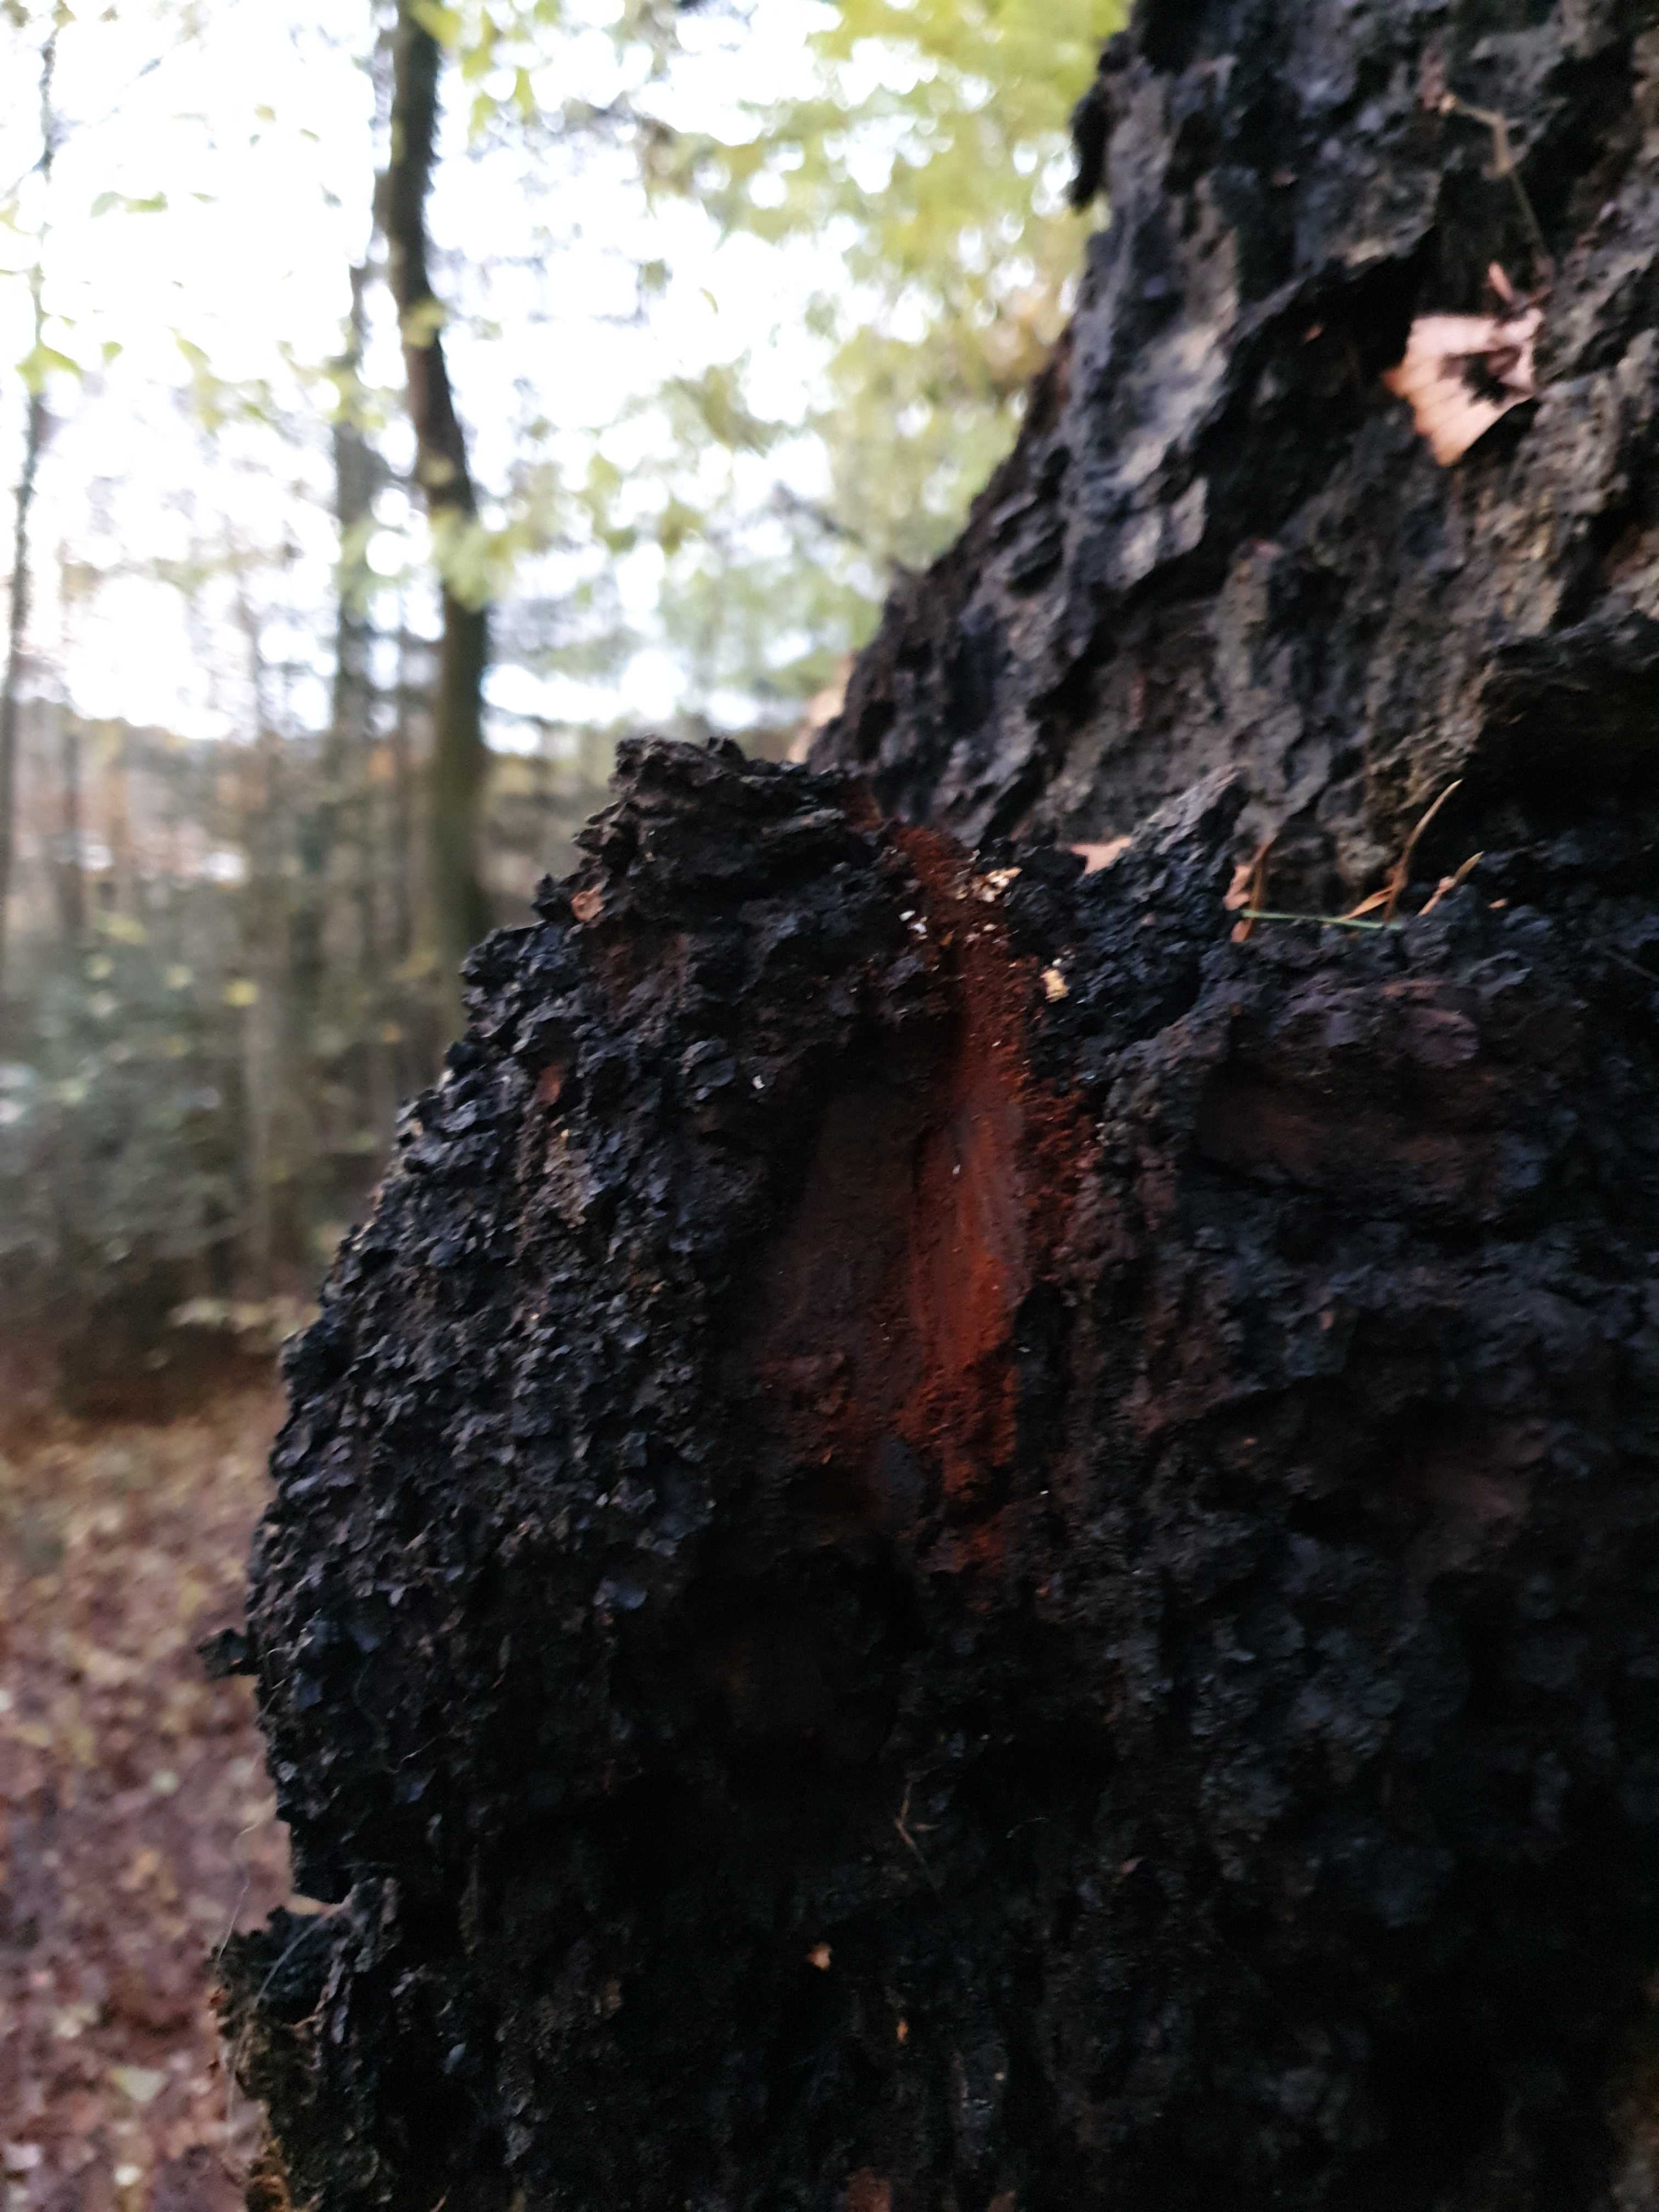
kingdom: Fungi
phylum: Basidiomycota
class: Agaricomycetes
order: Hymenochaetales
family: Hymenochaetaceae
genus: Inonotus
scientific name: Inonotus obliquus
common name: birke-spejlporesvamp
